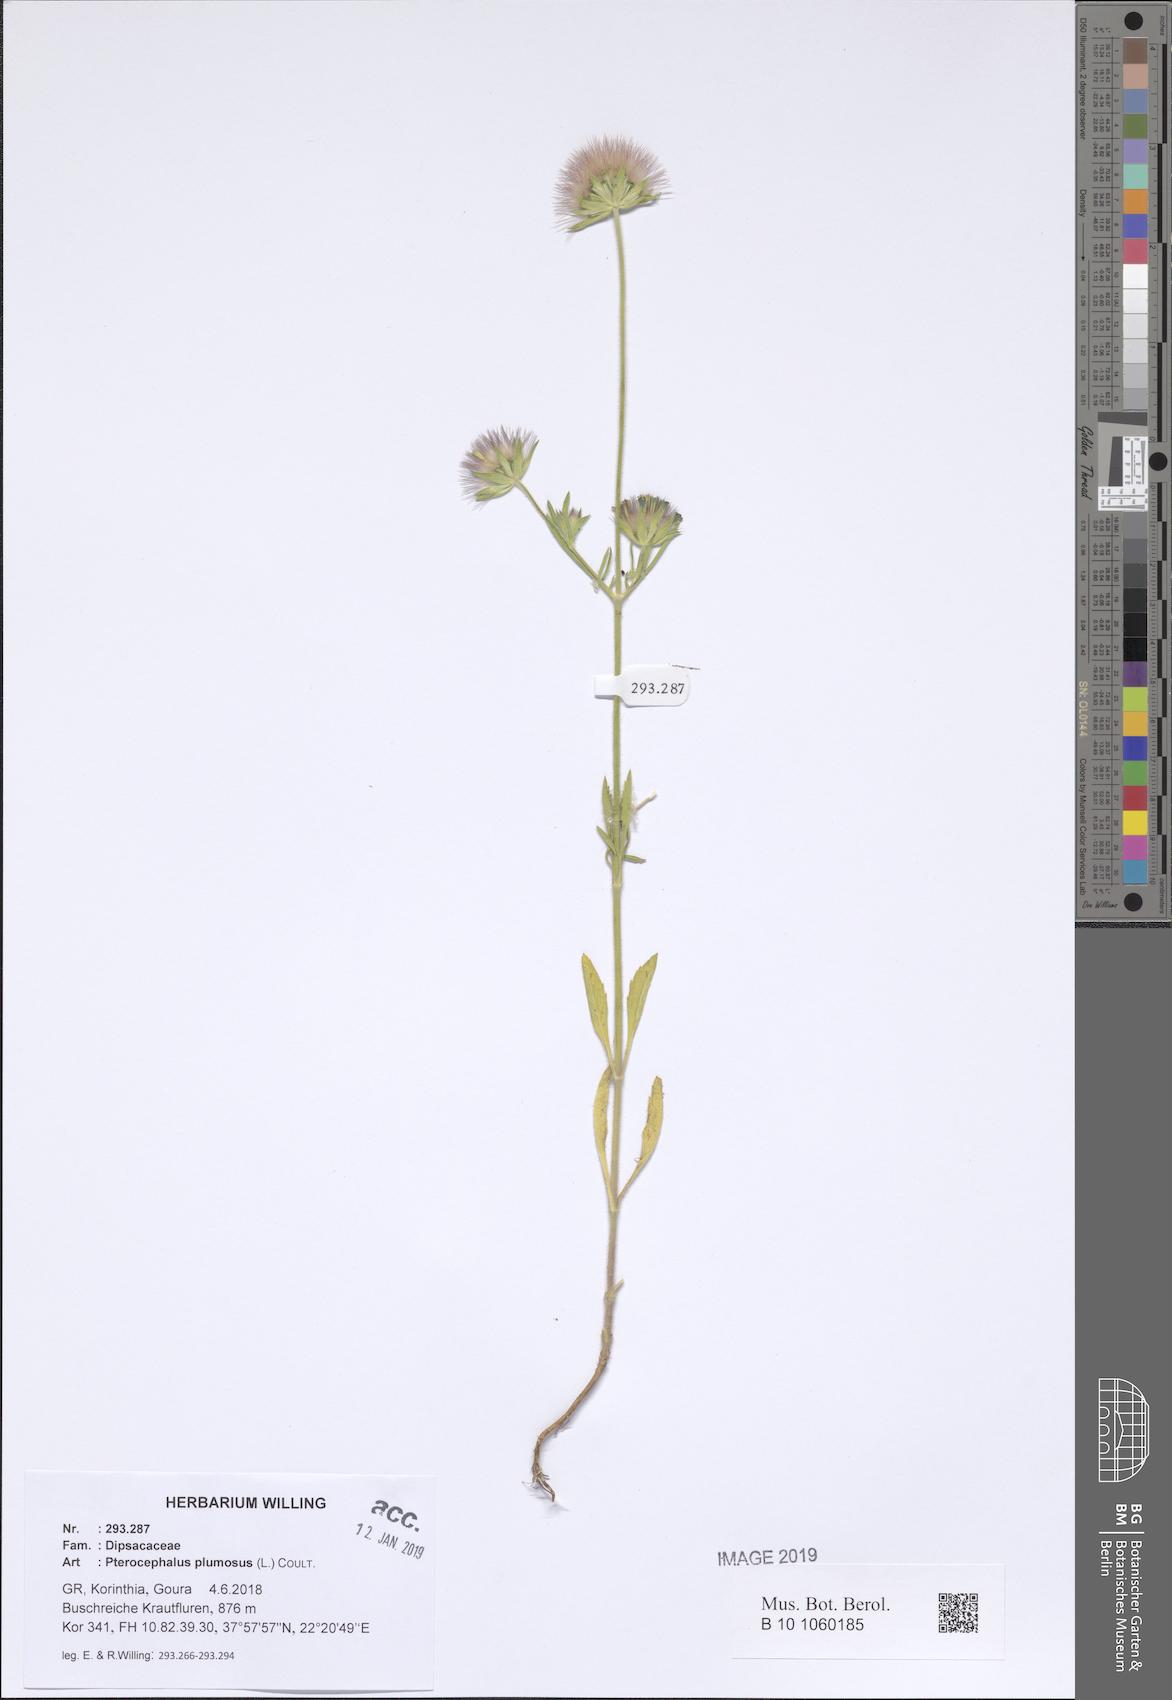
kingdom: Plantae
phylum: Tracheophyta
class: Magnoliopsida
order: Dipsacales
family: Caprifoliaceae
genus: Pterocephalus
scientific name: Pterocephalus plumosus
